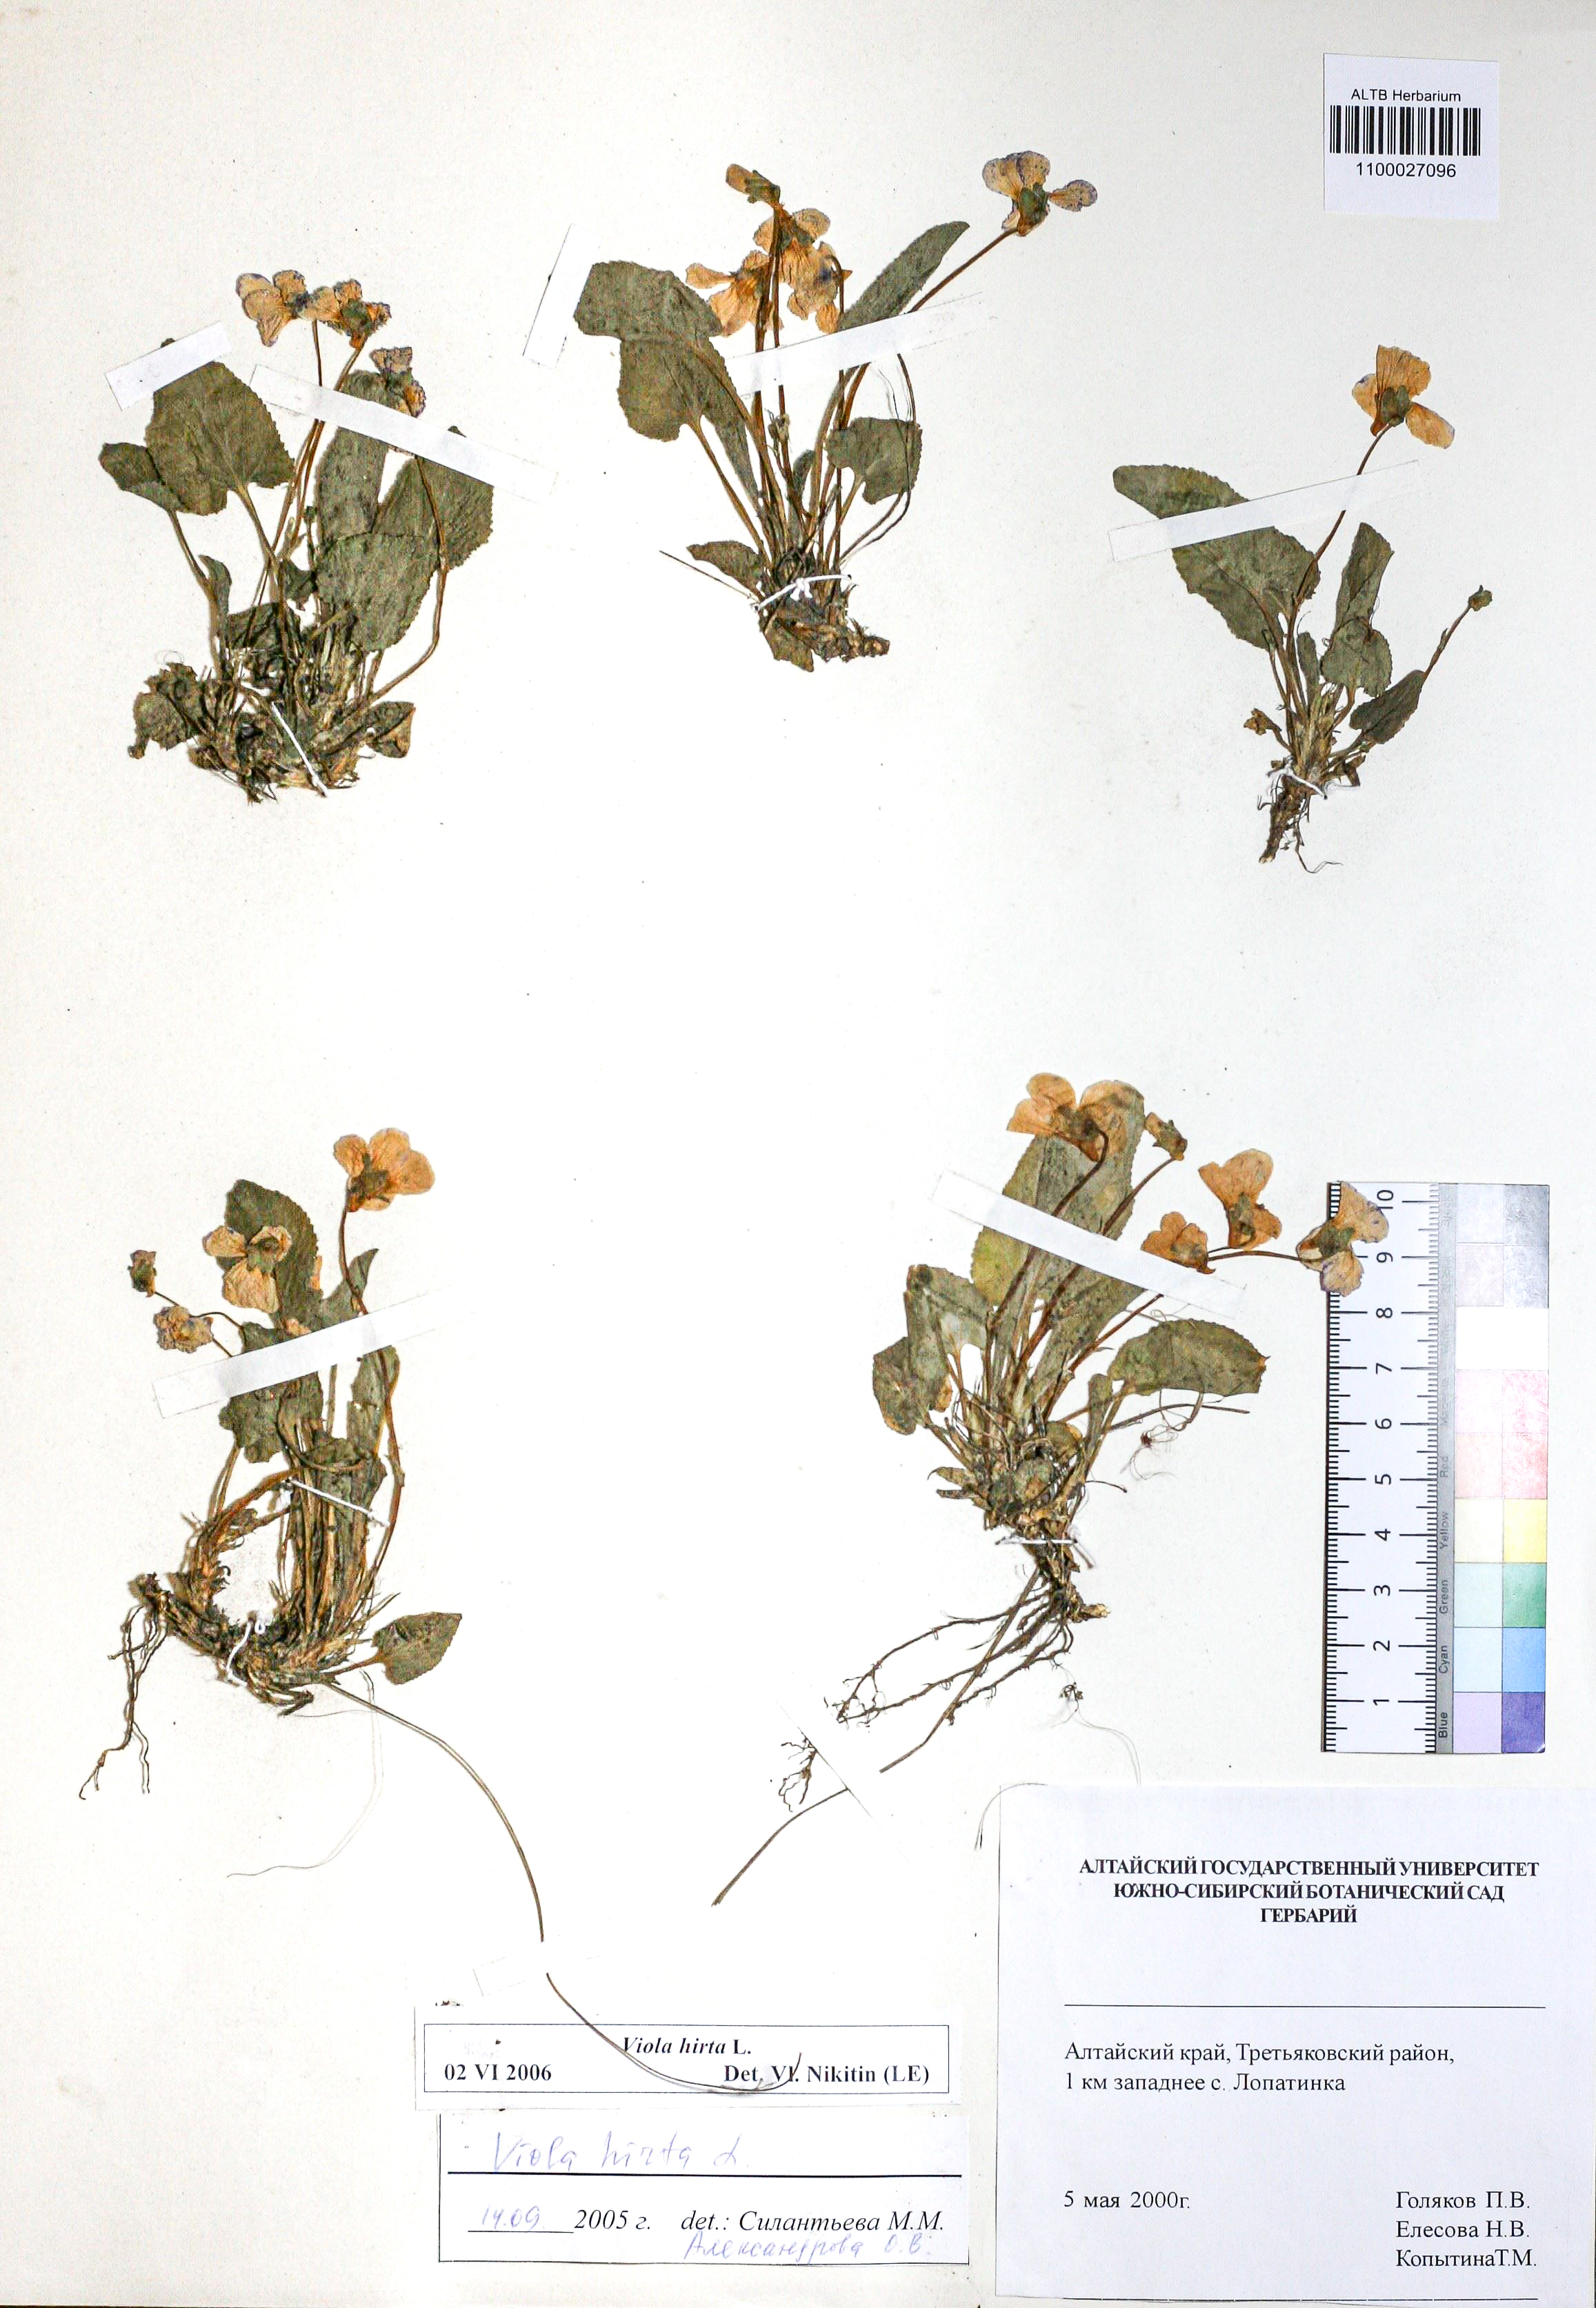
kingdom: Plantae
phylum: Tracheophyta
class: Magnoliopsida
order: Malpighiales
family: Violaceae
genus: Viola
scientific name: Viola hirta
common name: Hairy violet
